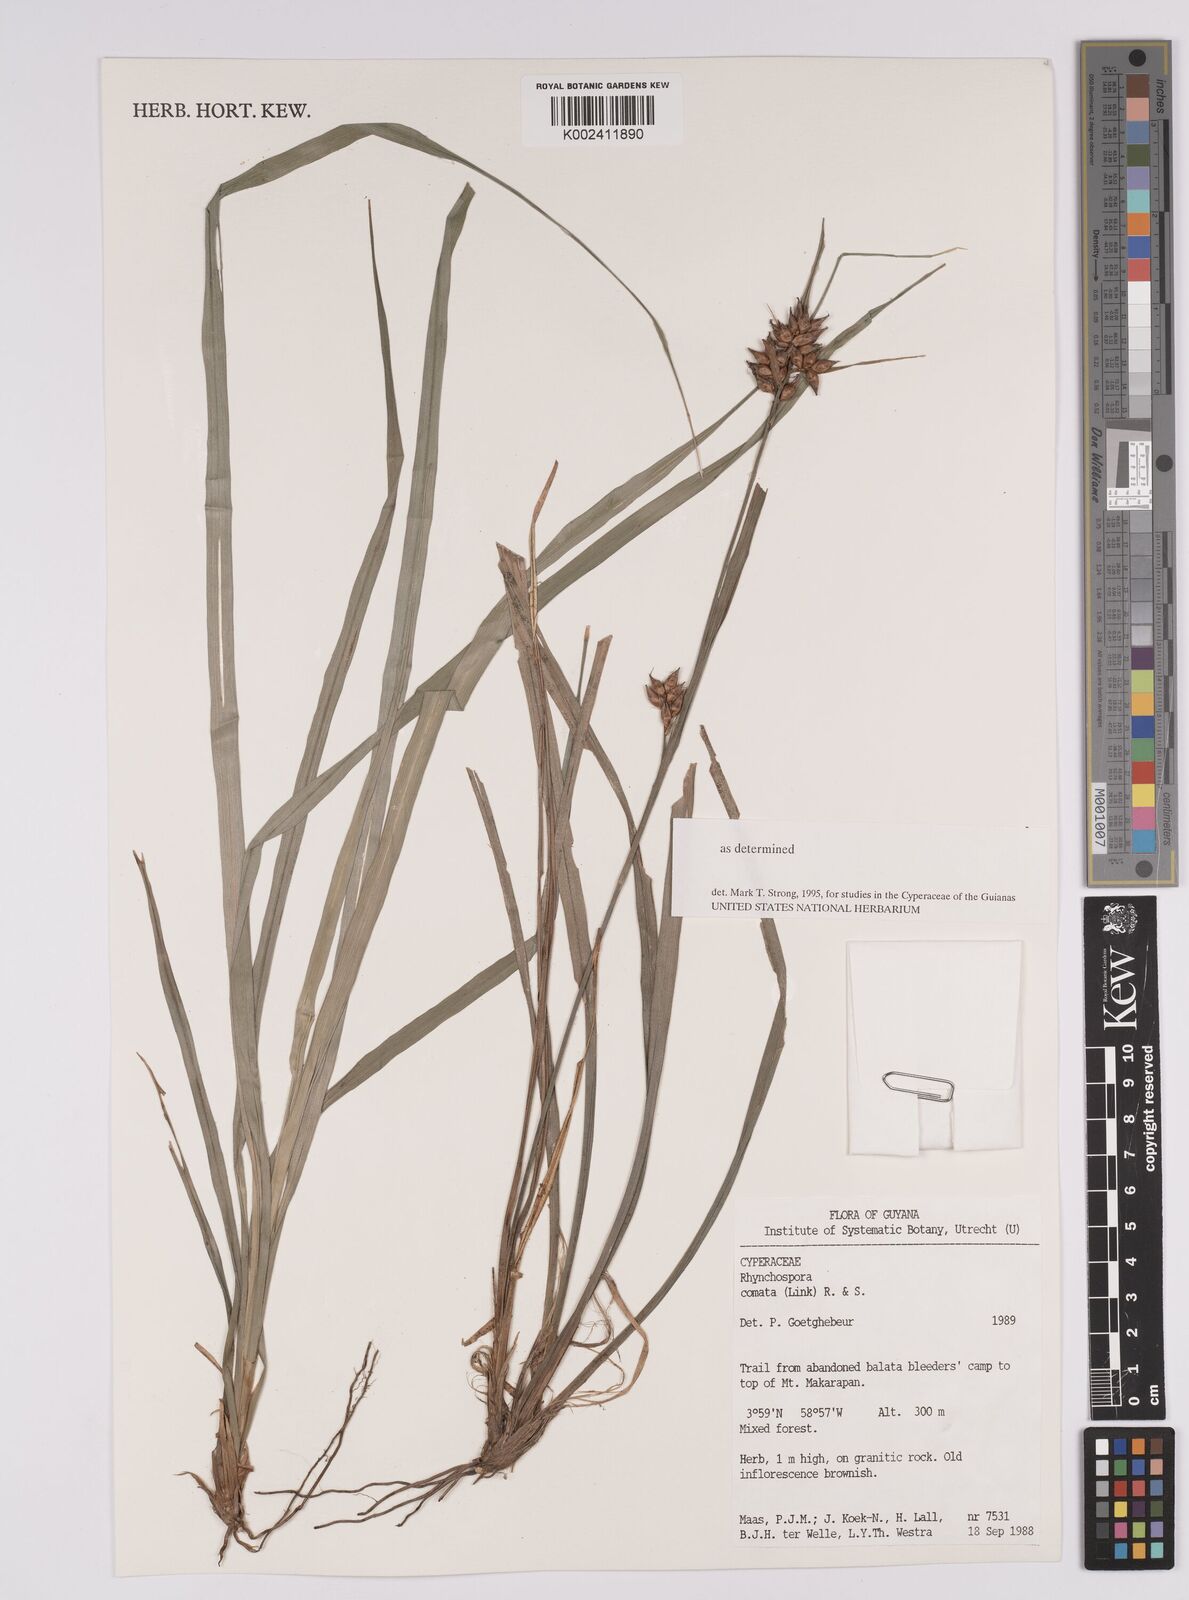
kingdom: Plantae
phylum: Tracheophyta
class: Liliopsida
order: Poales
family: Cyperaceae
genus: Rhynchospora
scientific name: Rhynchospora comata
